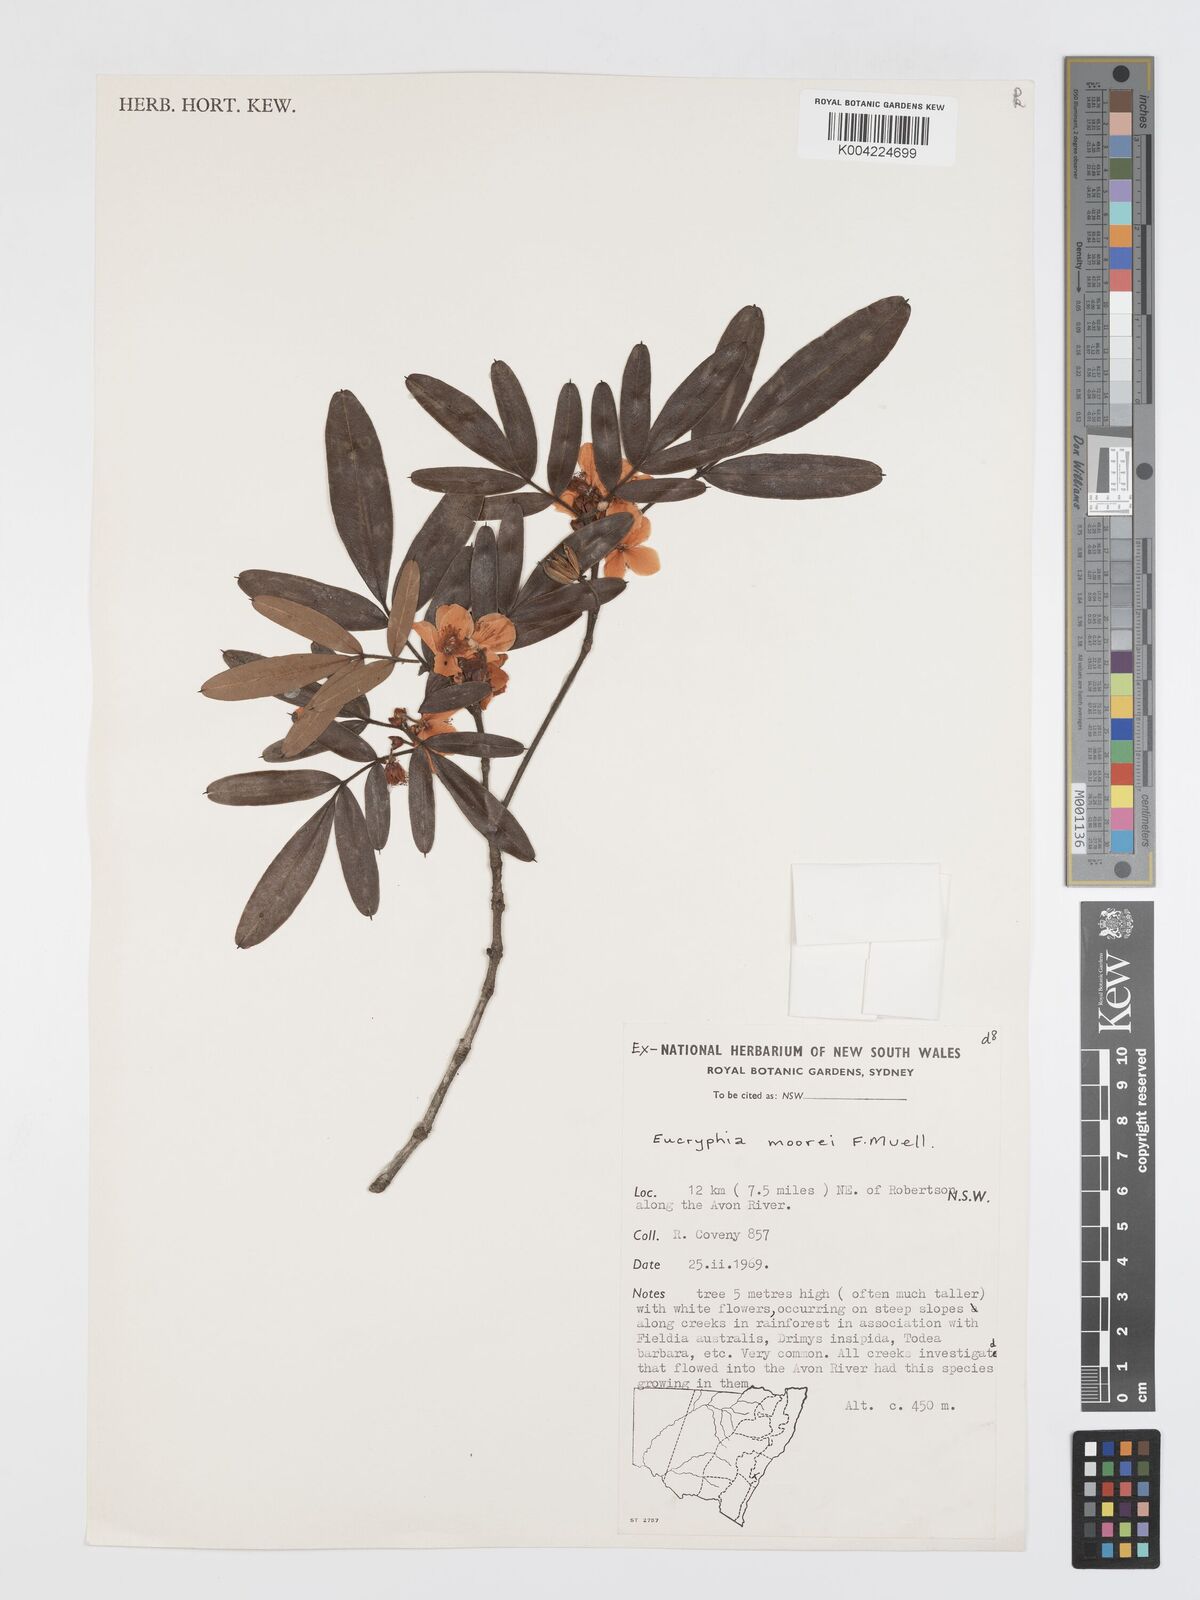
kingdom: Plantae
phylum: Tracheophyta
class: Magnoliopsida
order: Oxalidales
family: Cunoniaceae
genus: Eucryphia
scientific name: Eucryphia moorei
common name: Acacia-plum
